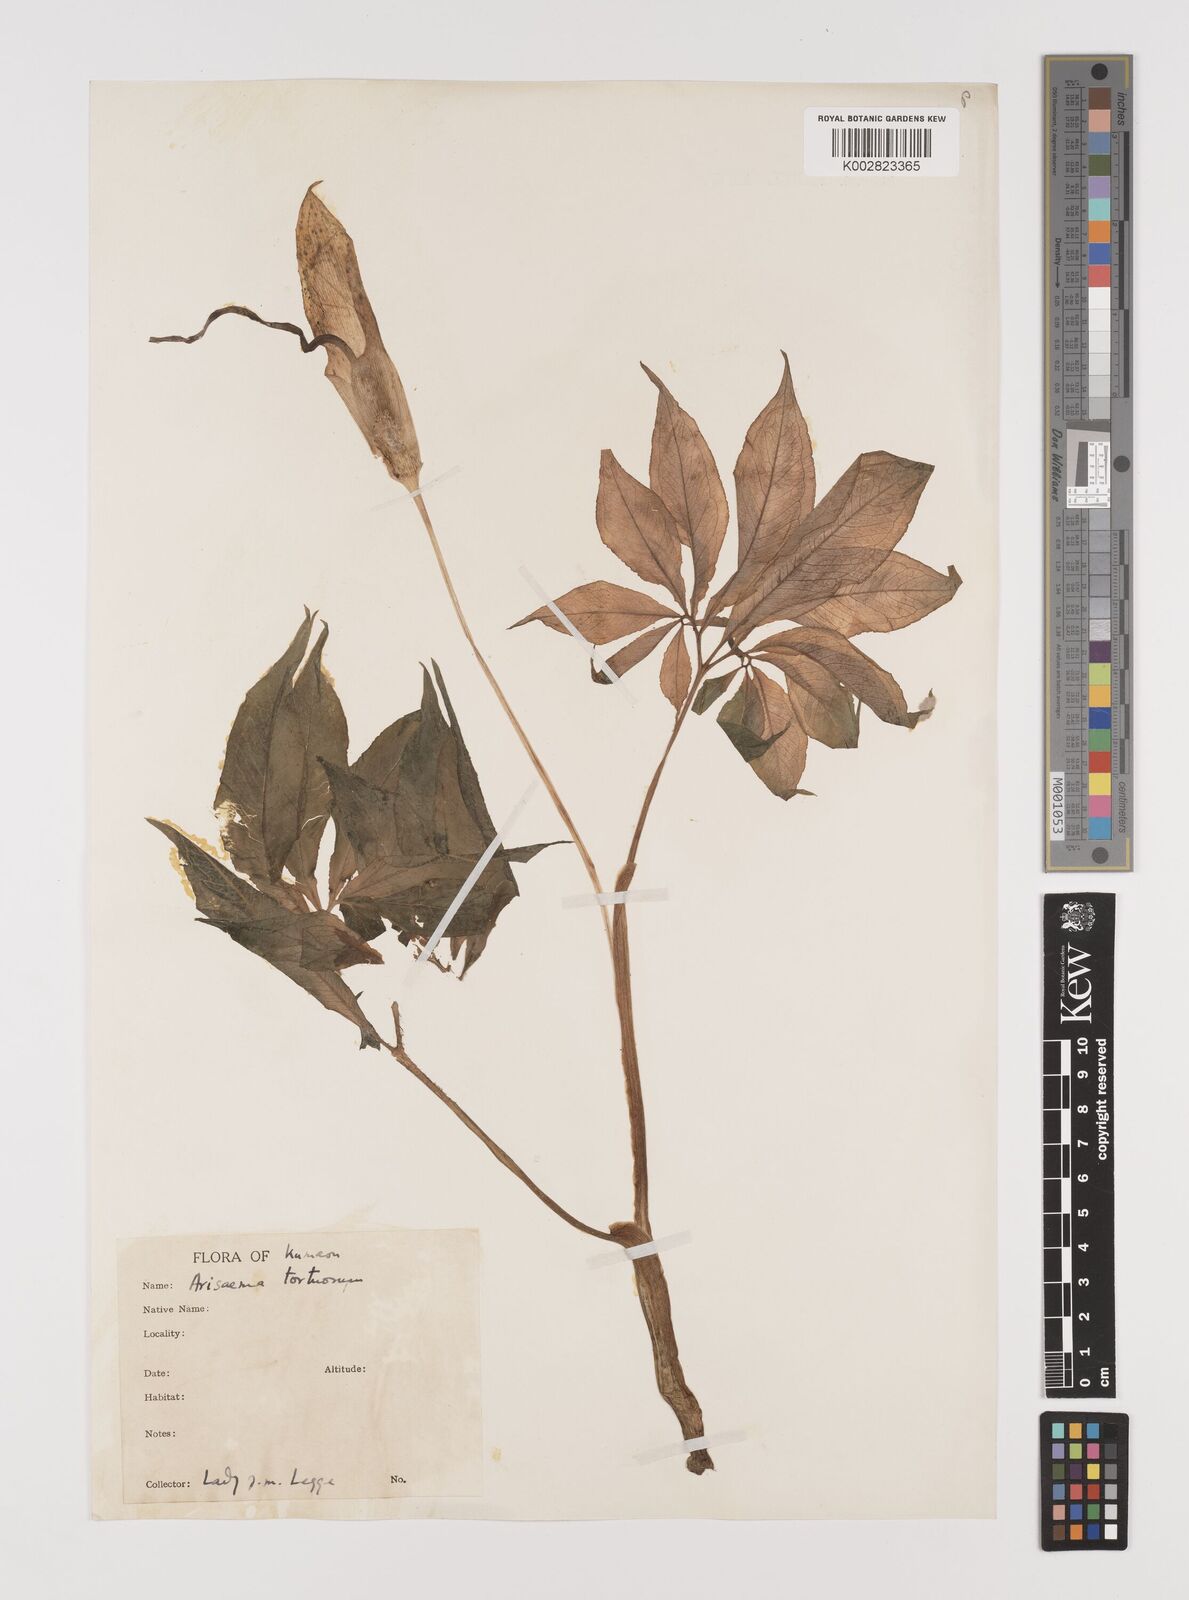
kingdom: Plantae
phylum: Tracheophyta
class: Liliopsida
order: Alismatales
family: Araceae
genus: Arisaema
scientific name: Arisaema tortuosum
